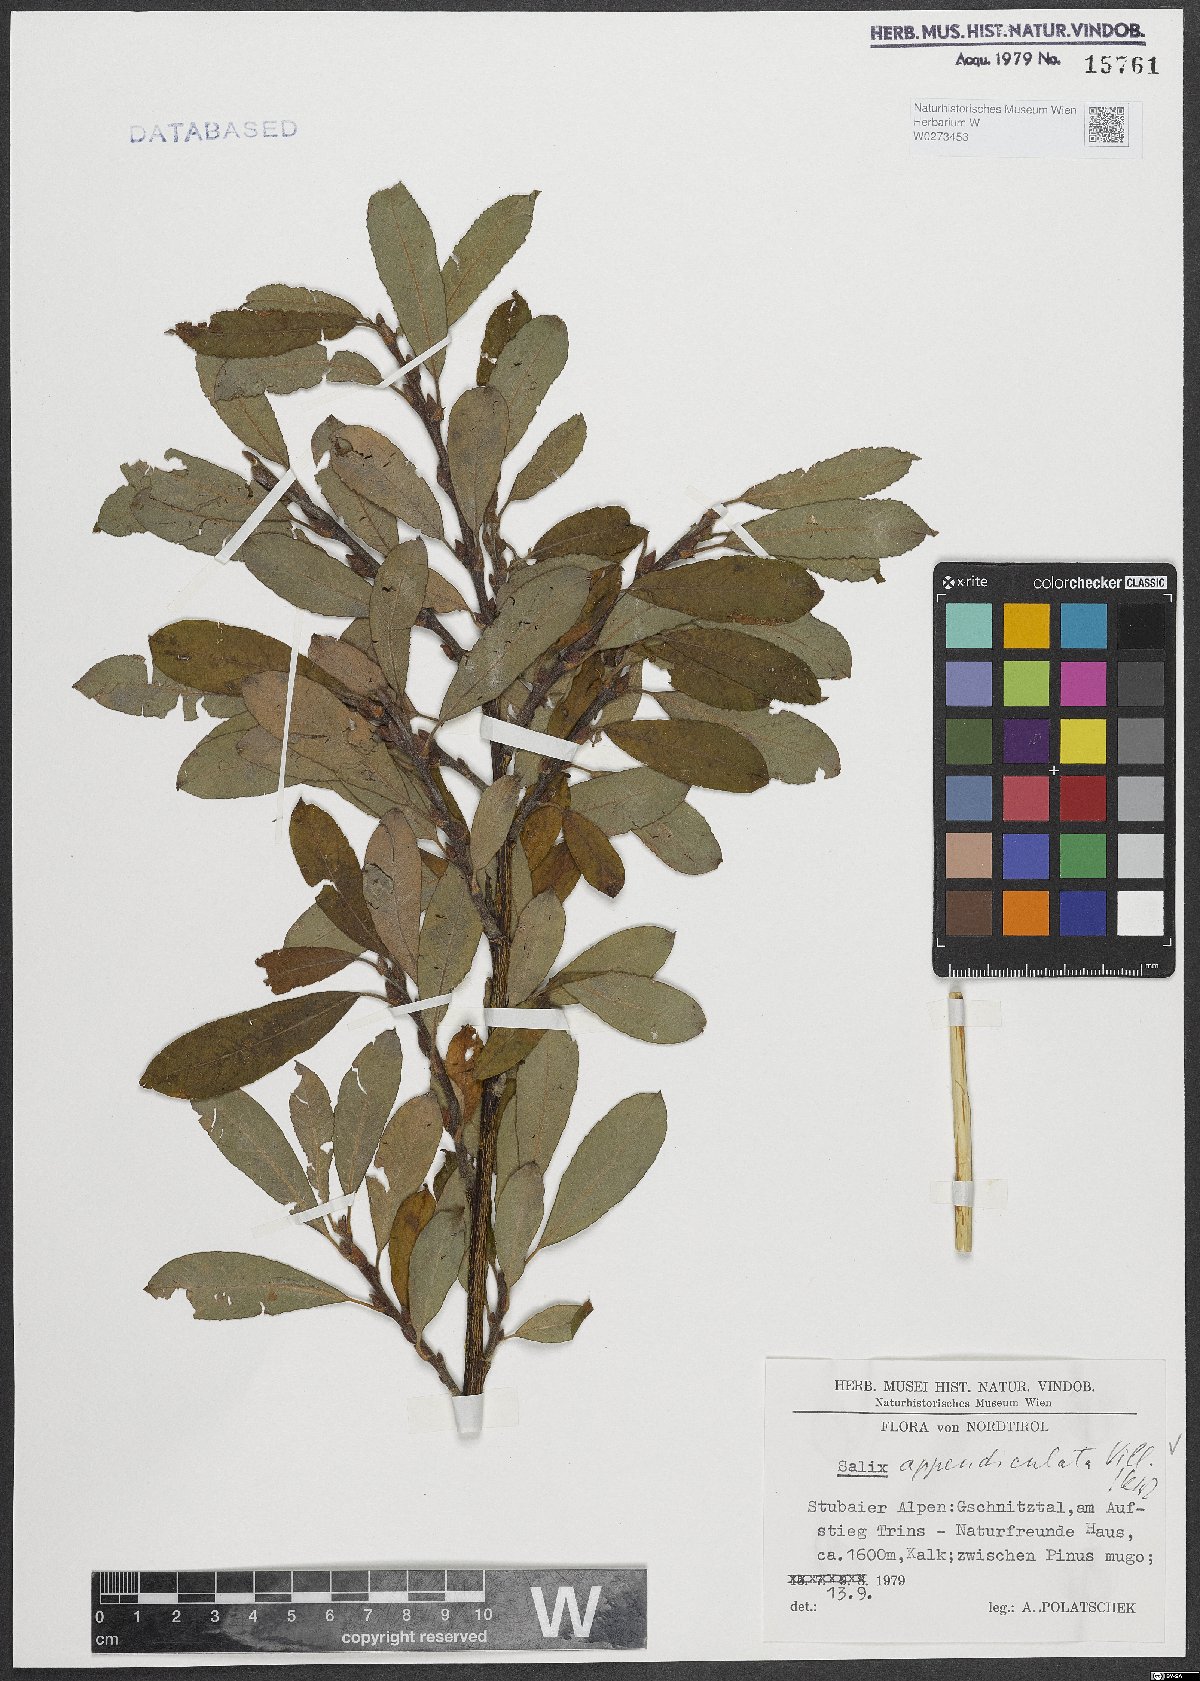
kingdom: Plantae
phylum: Tracheophyta
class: Magnoliopsida
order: Malpighiales
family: Salicaceae
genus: Salix
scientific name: Salix appendiculata
